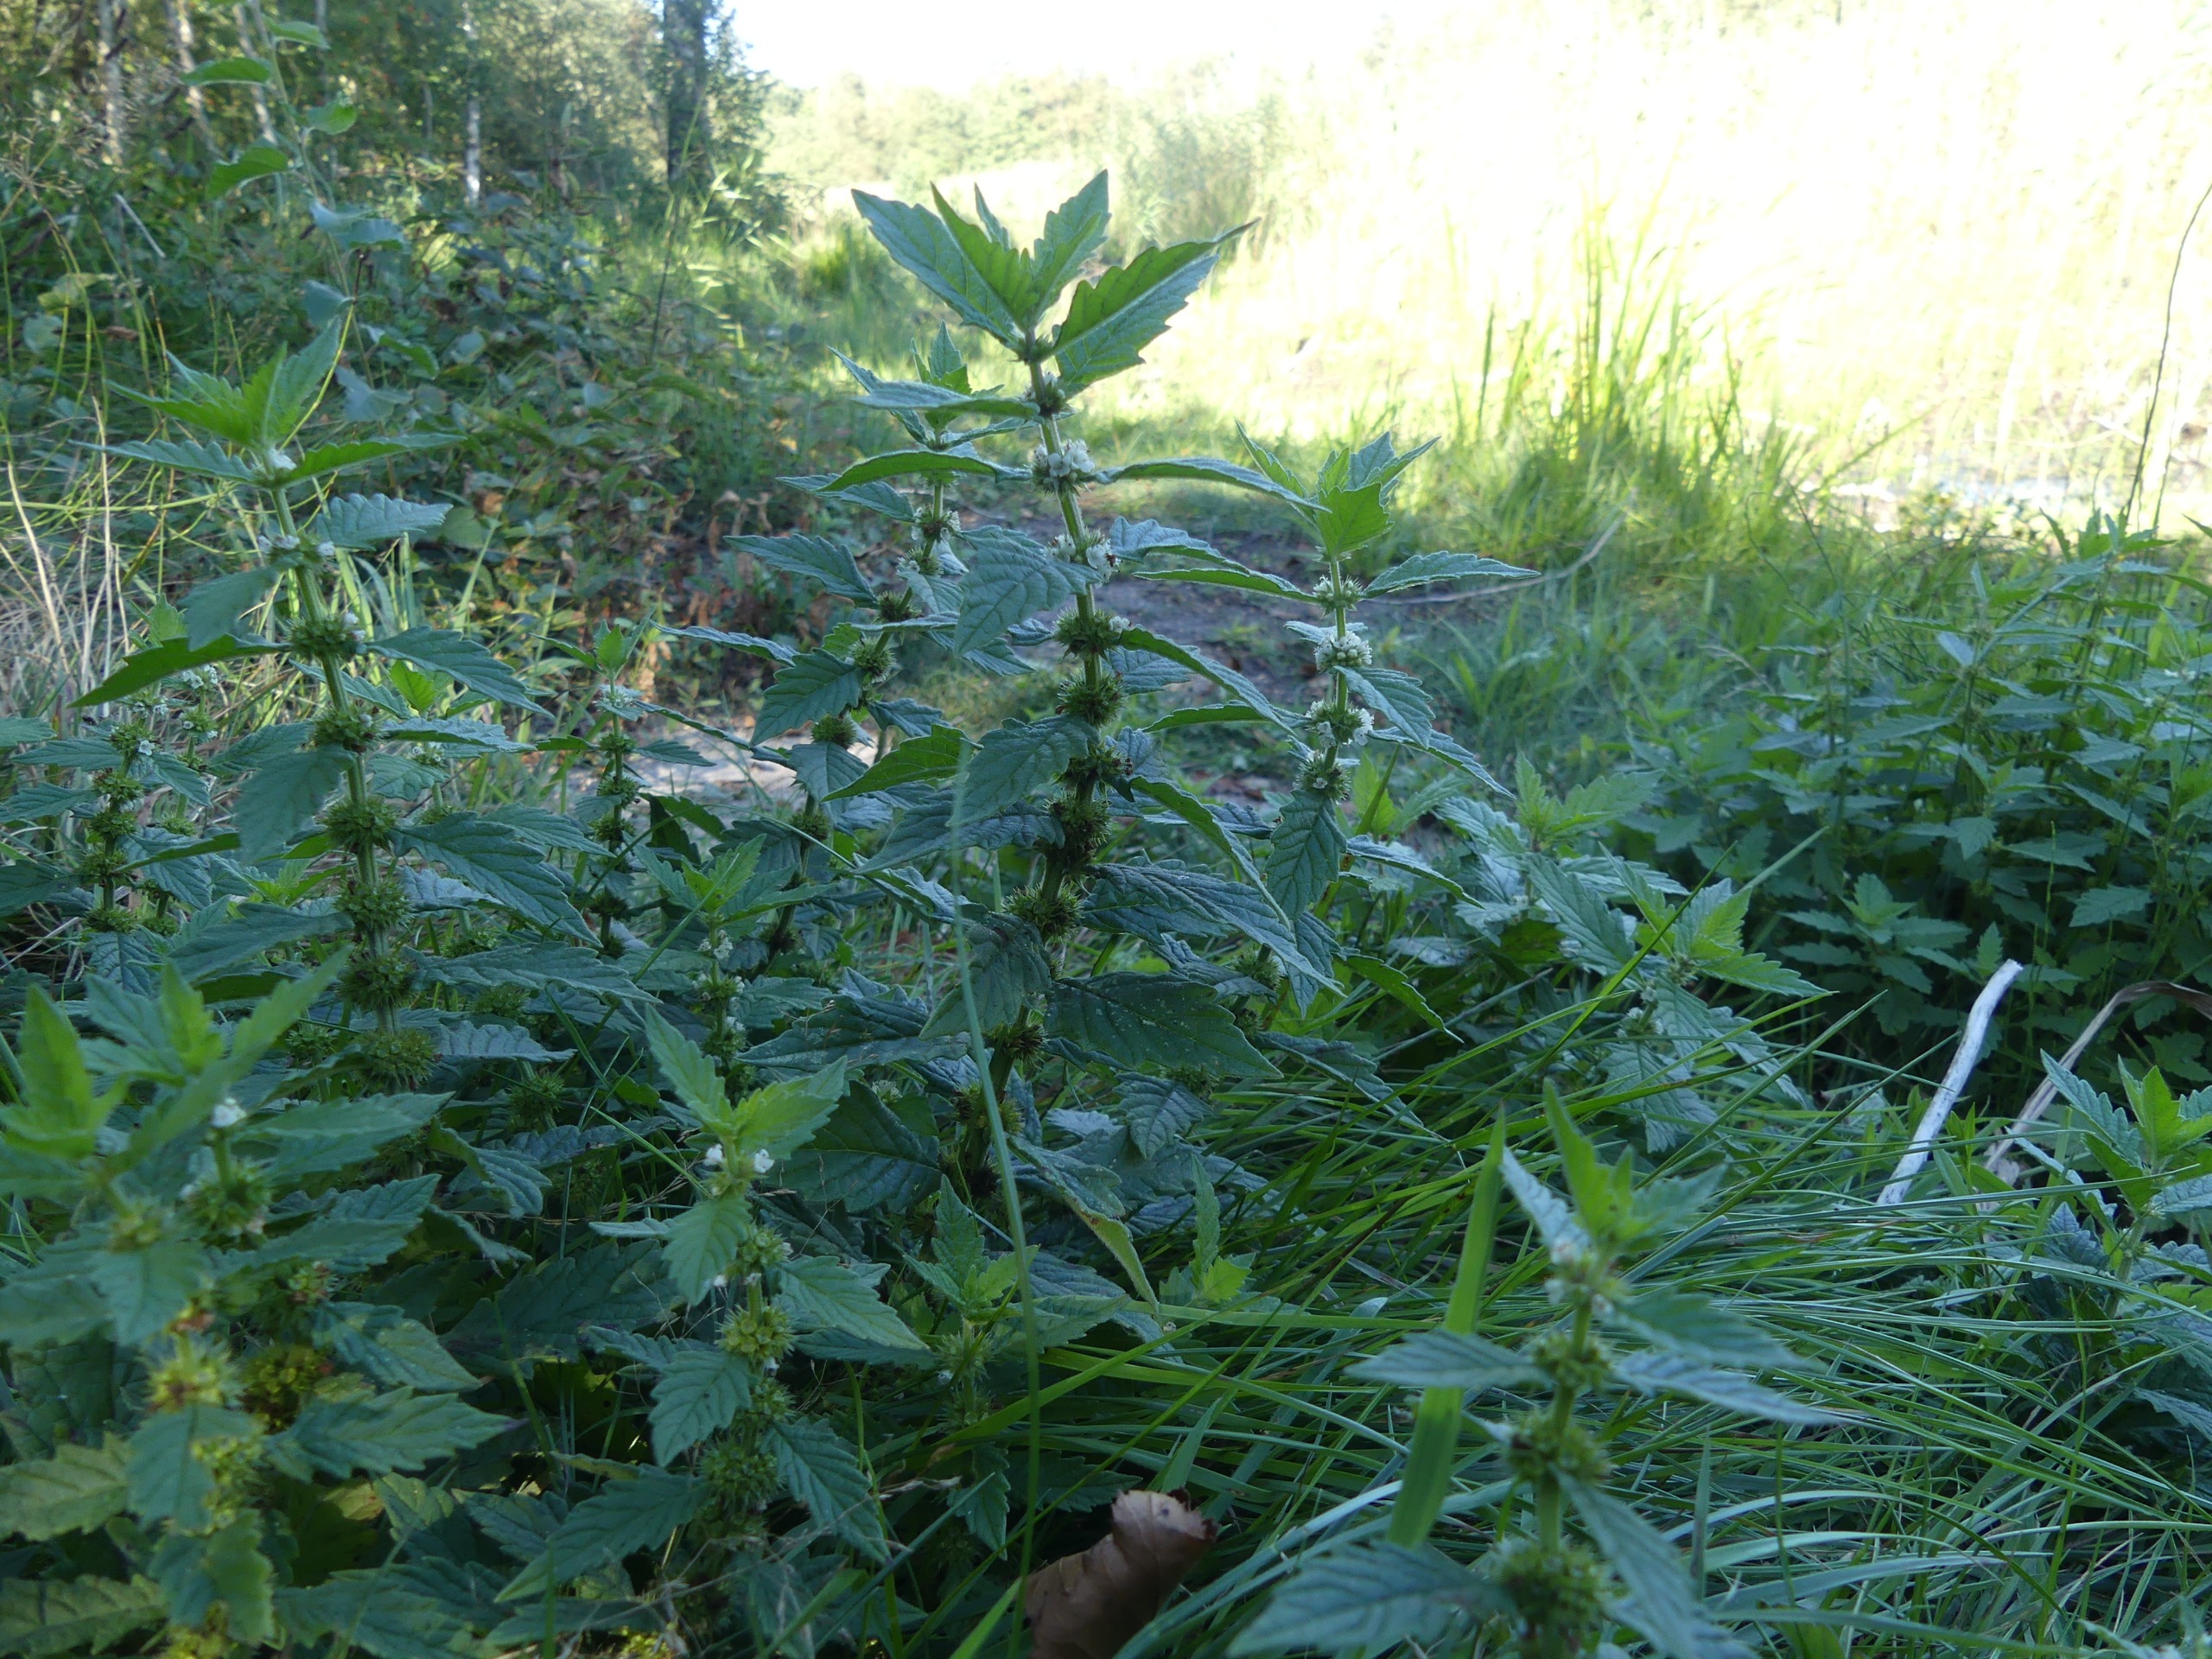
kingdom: Plantae
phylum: Tracheophyta
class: Magnoliopsida
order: Lamiales
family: Lamiaceae
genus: Lycopus
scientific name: Lycopus europaeus
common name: Sværtevæld
